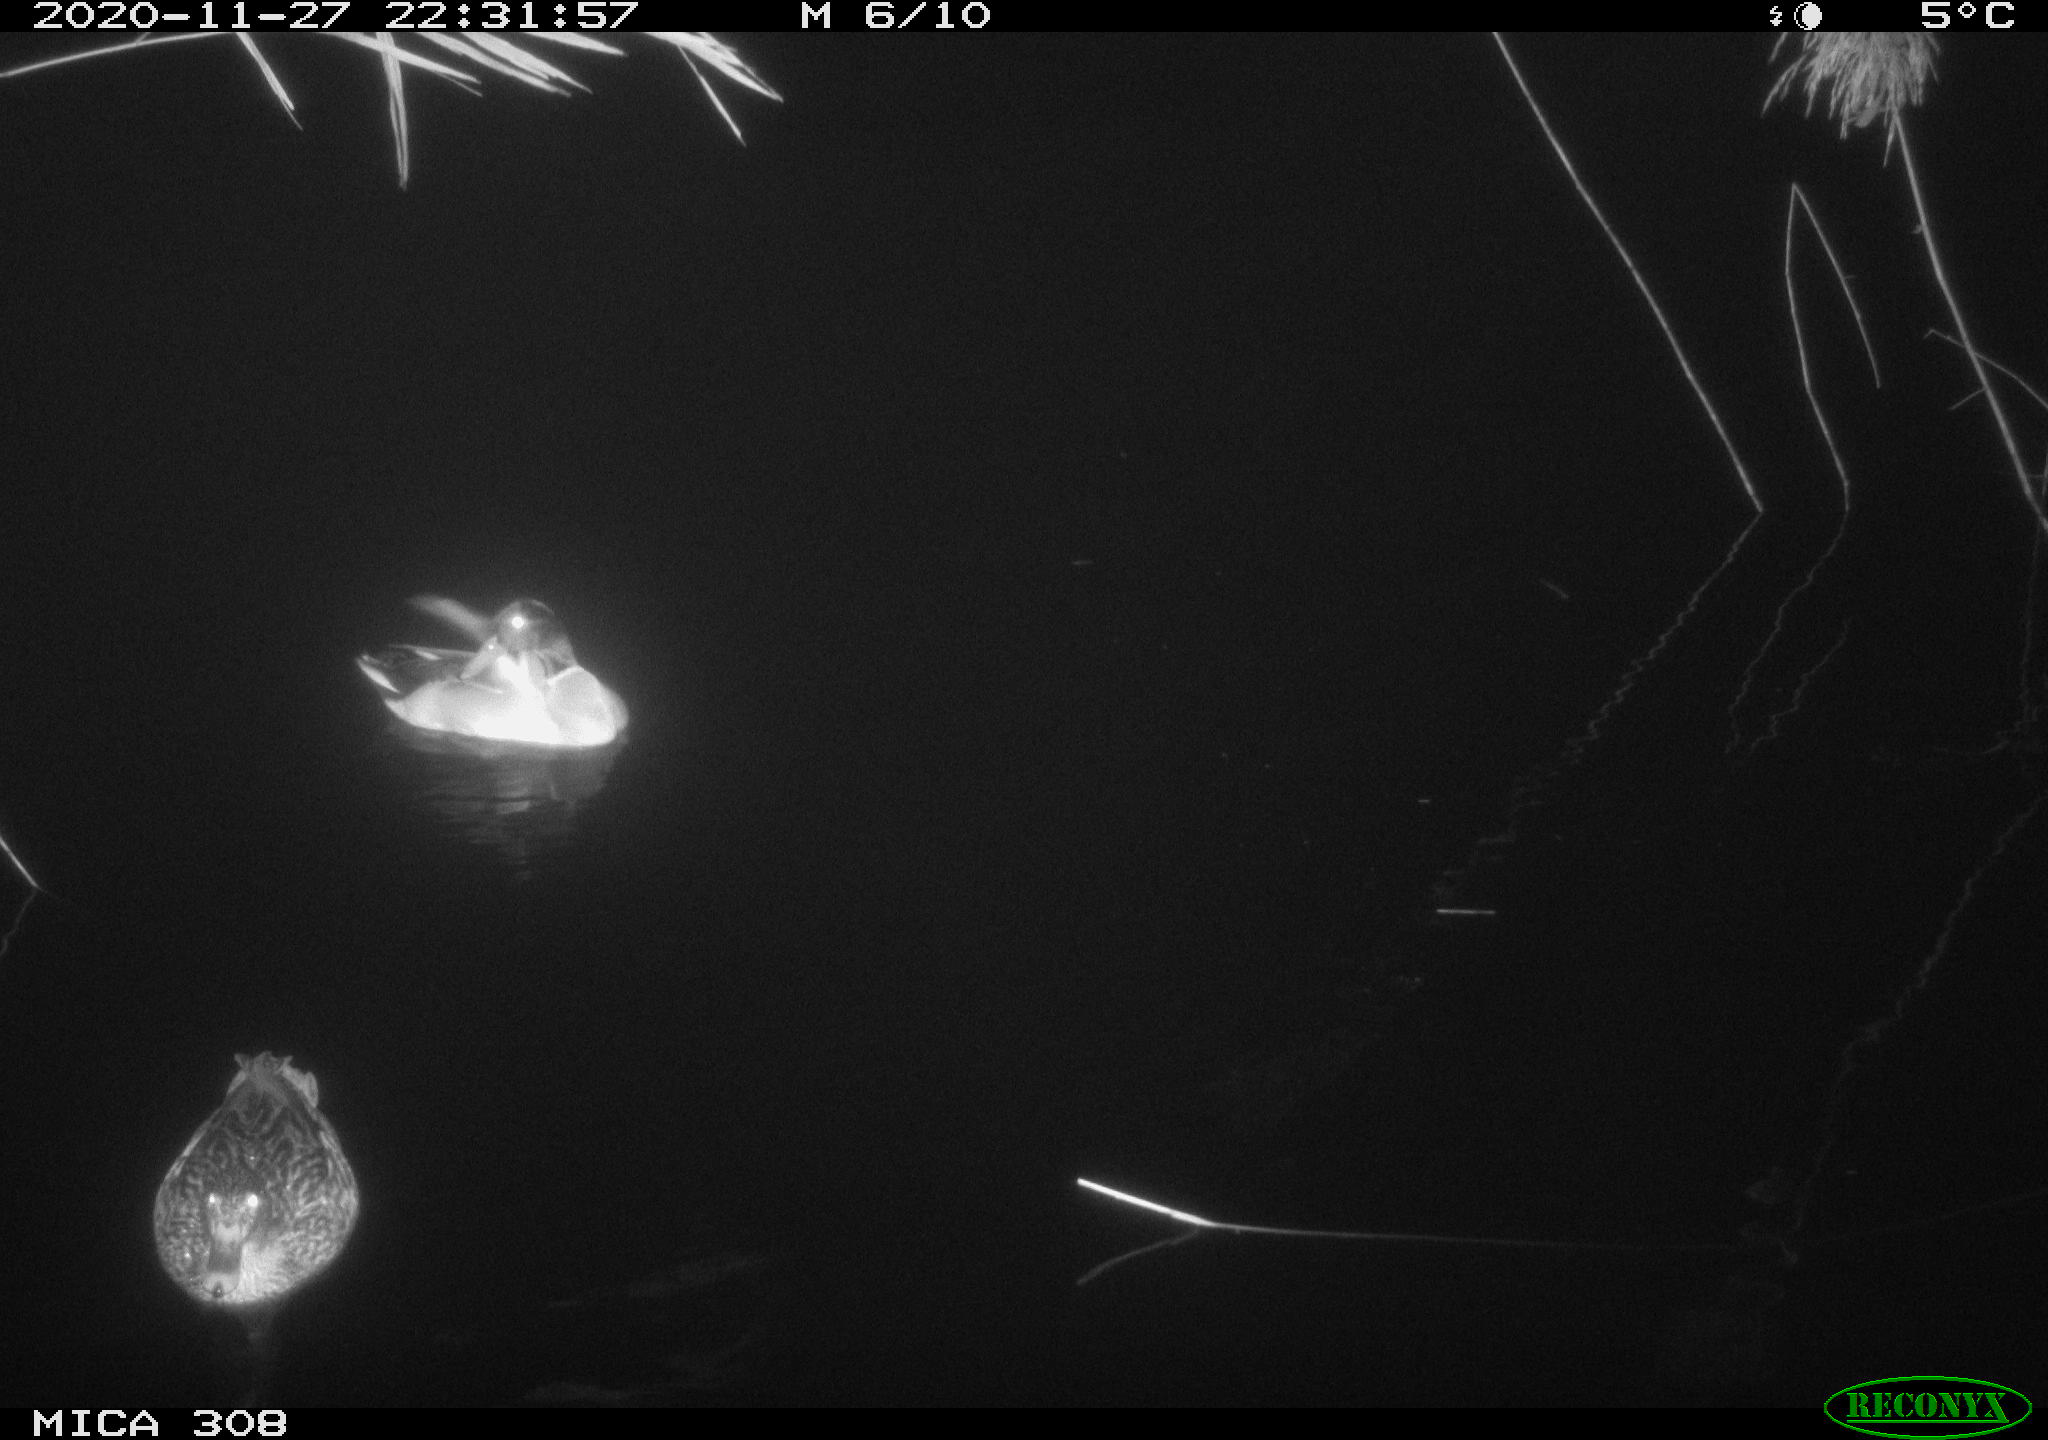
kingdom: Animalia
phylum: Chordata
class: Aves
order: Anseriformes
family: Anatidae
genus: Anas
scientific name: Anas platyrhynchos
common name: Mallard
